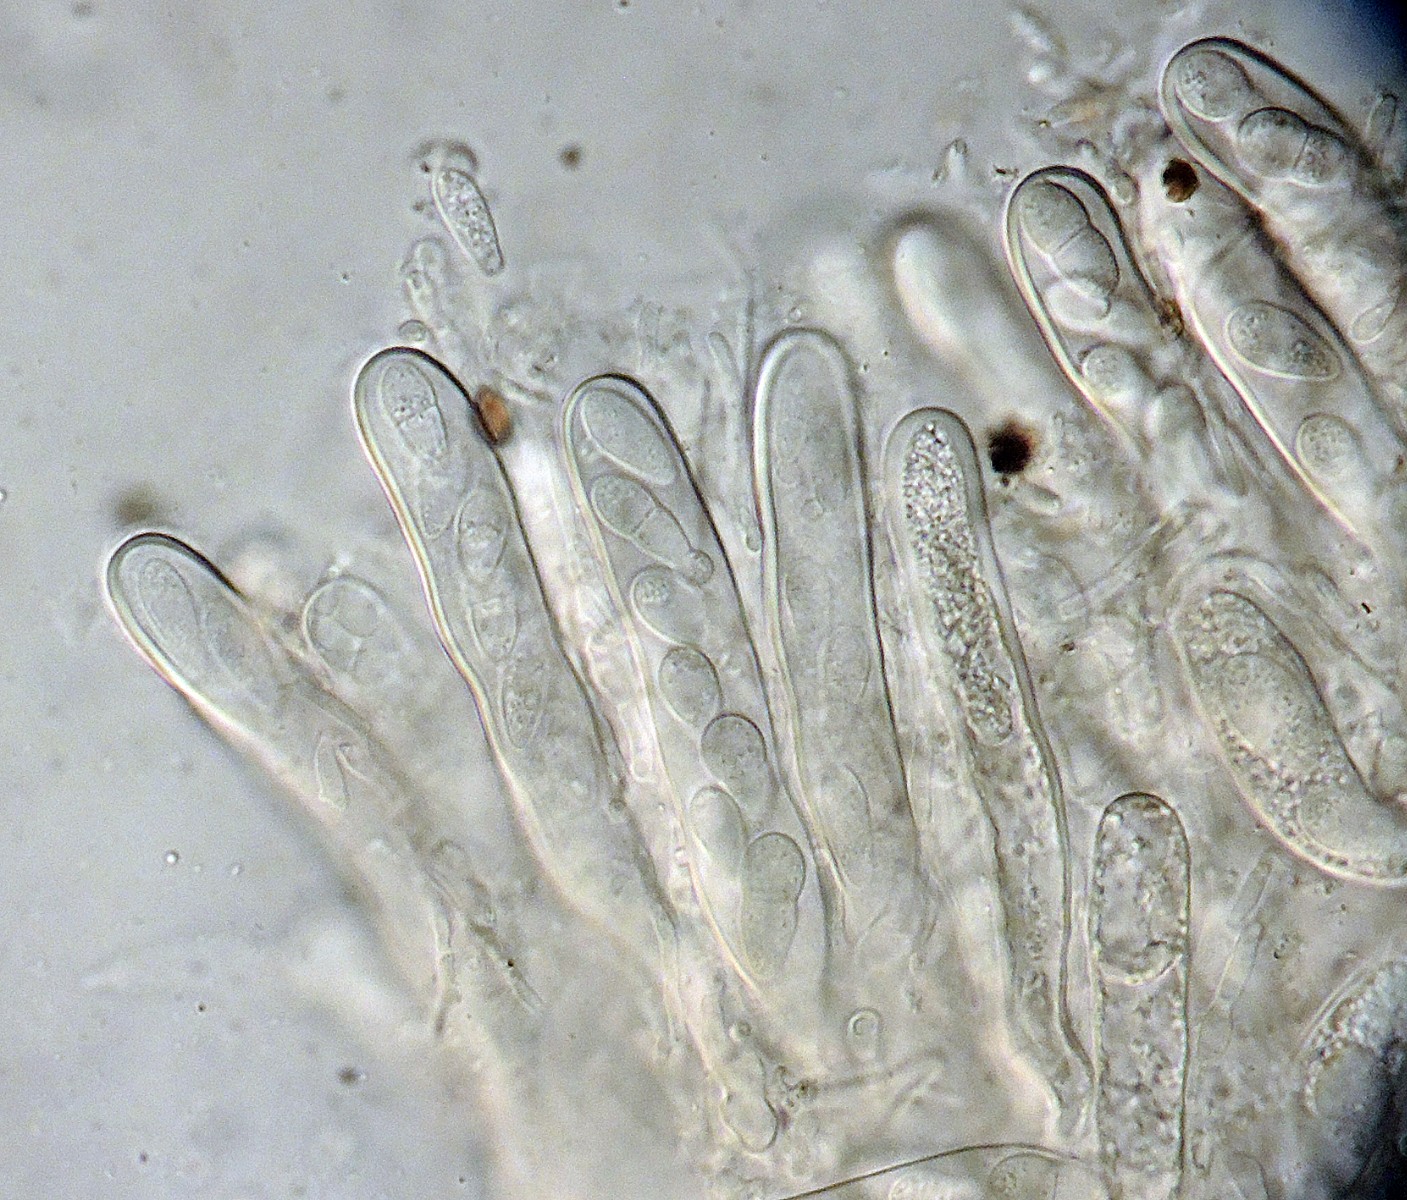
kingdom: Fungi
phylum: Ascomycota
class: Dothideomycetes
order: Mytilinidiales
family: Gloniaceae
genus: Glonium
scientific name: Glonium lineare
